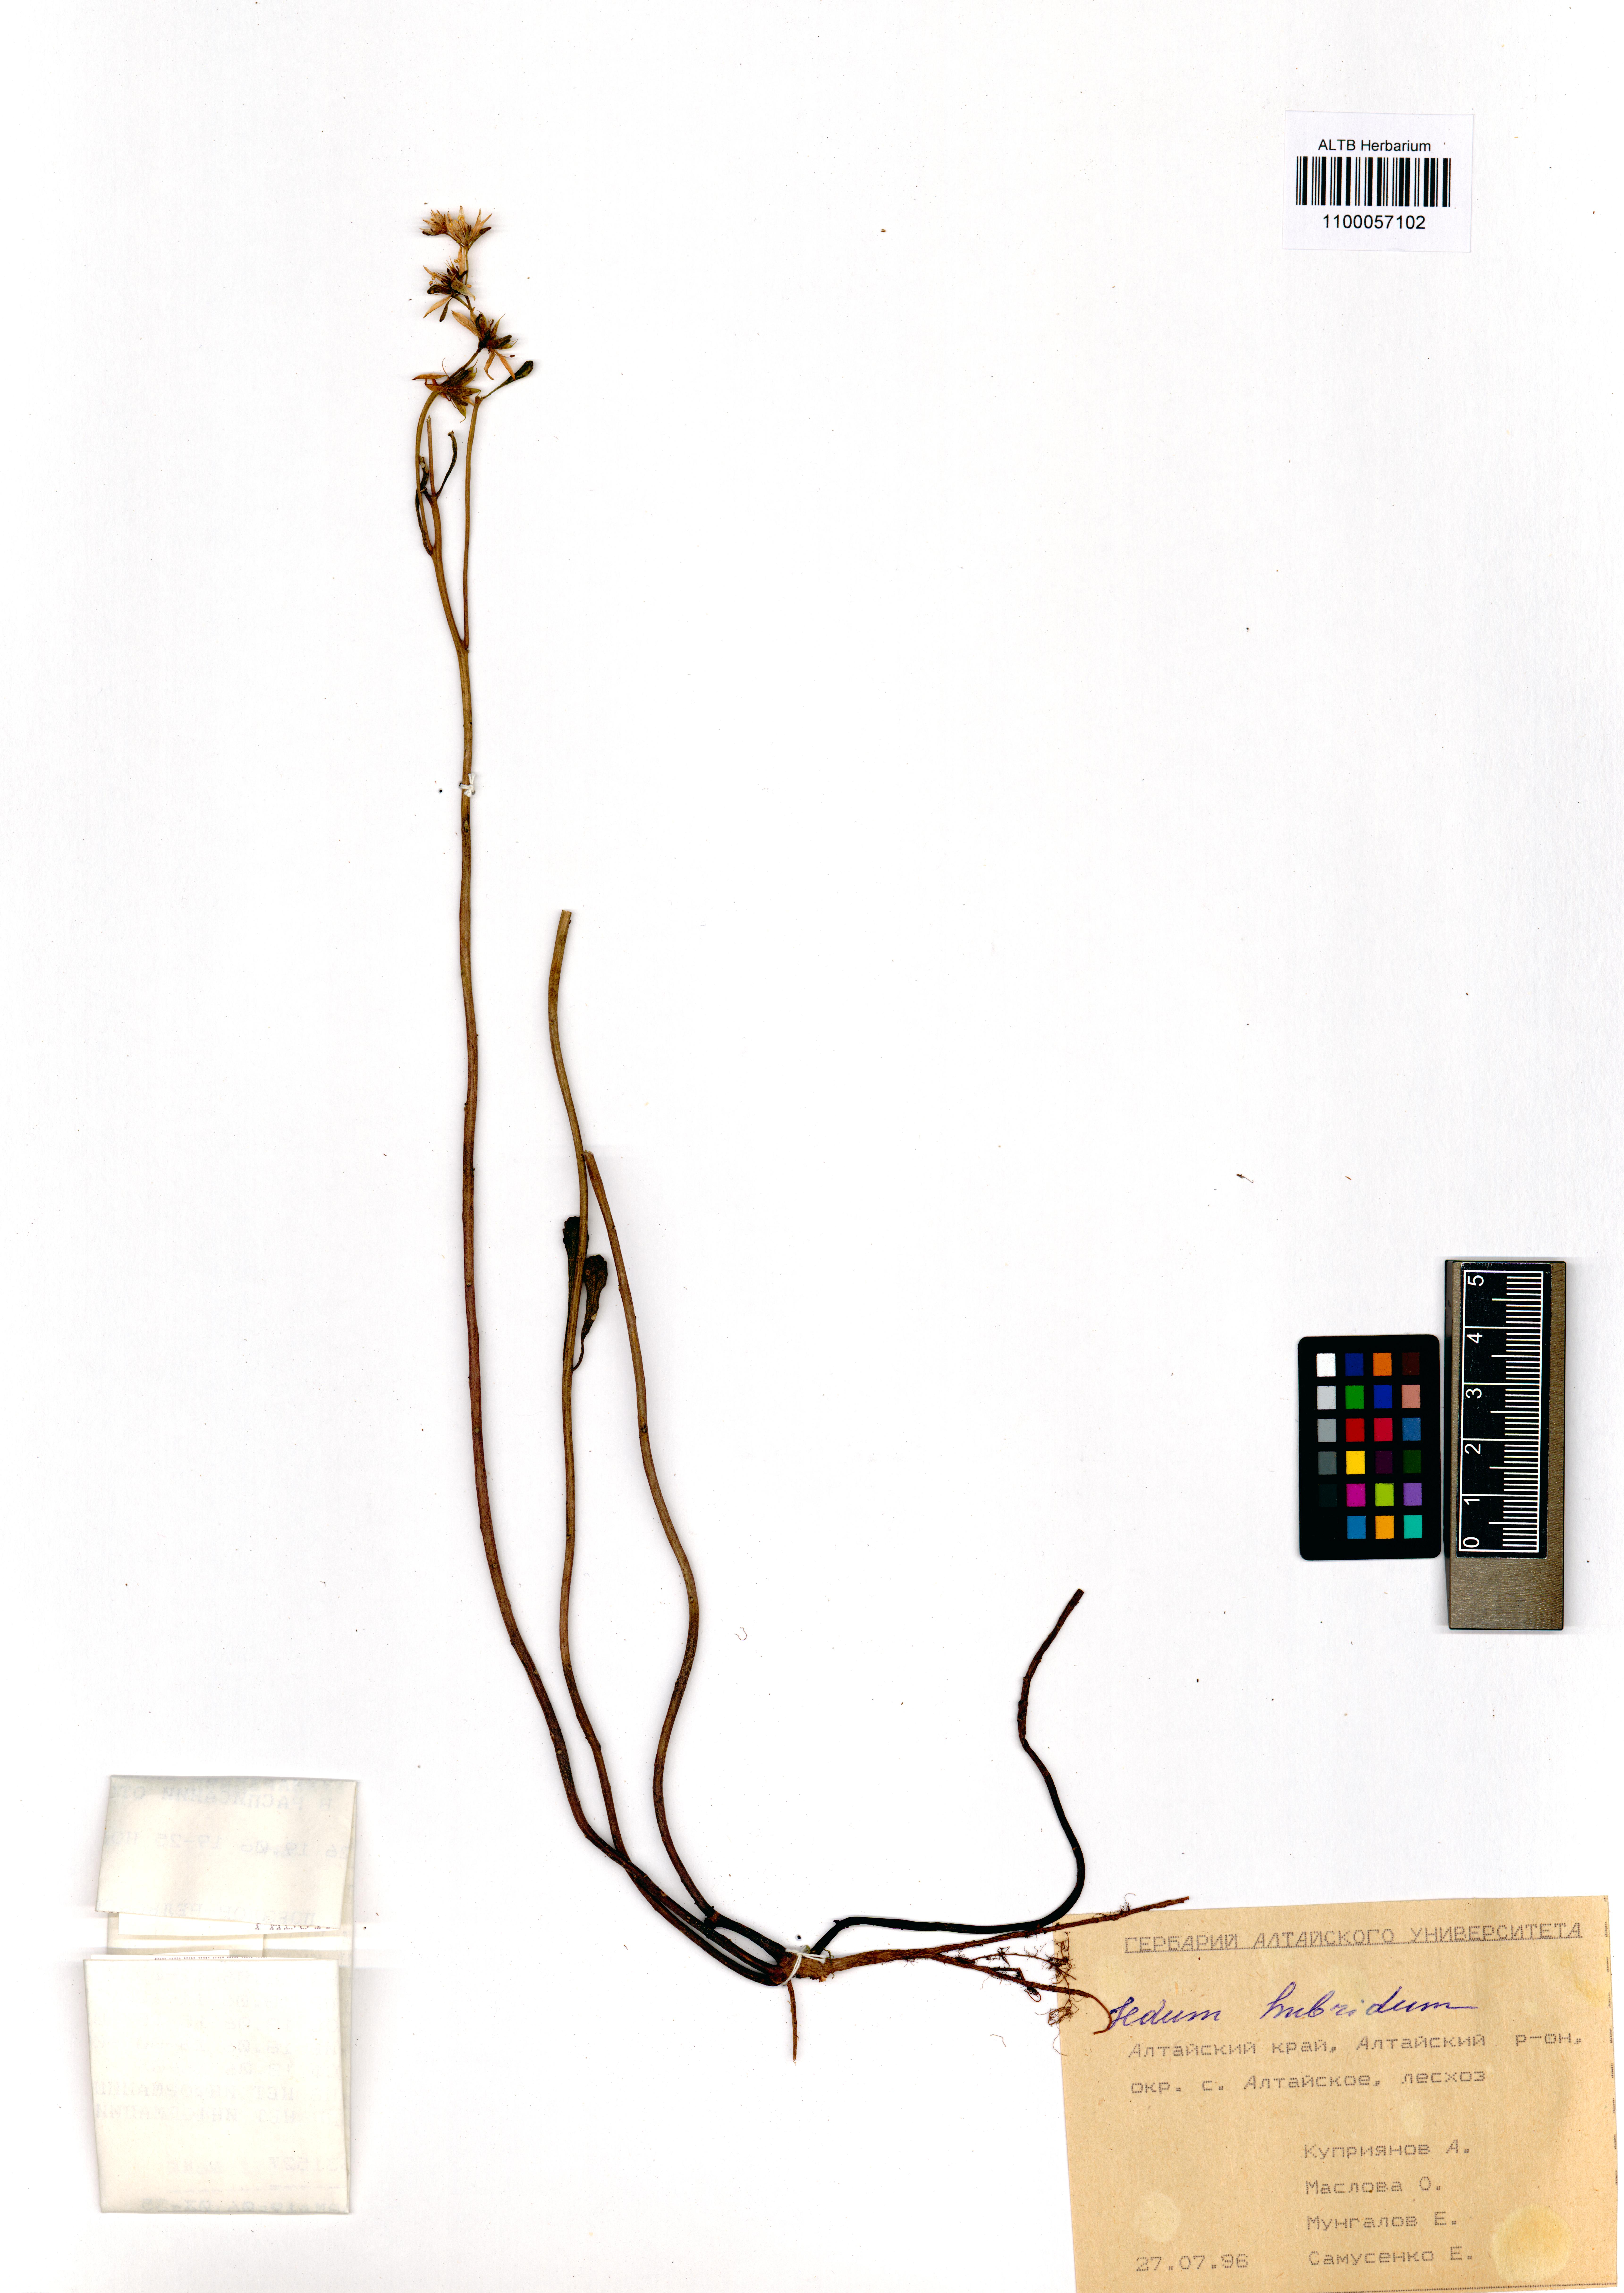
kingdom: Plantae
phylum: Tracheophyta
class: Magnoliopsida
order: Saxifragales
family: Crassulaceae
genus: Phedimus
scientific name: Phedimus hybridus
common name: Hybrid stonecrop
